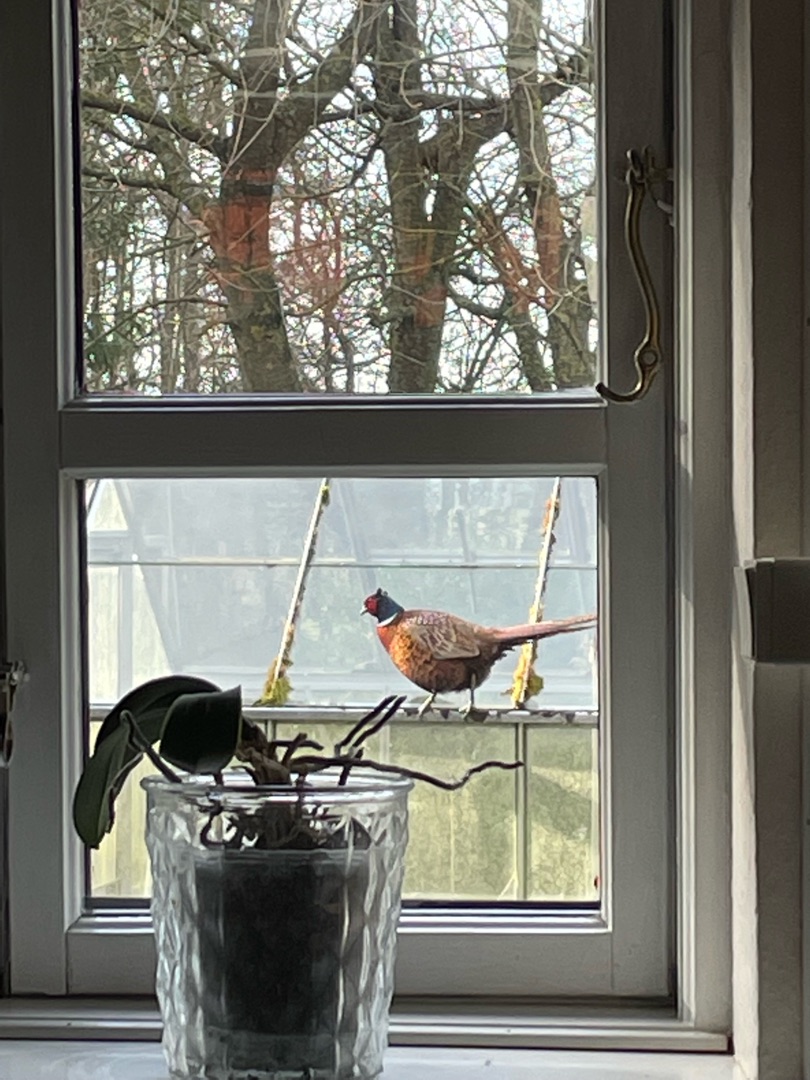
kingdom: Animalia
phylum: Chordata
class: Aves
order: Galliformes
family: Phasianidae
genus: Phasianus
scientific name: Phasianus colchicus
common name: Fasan
